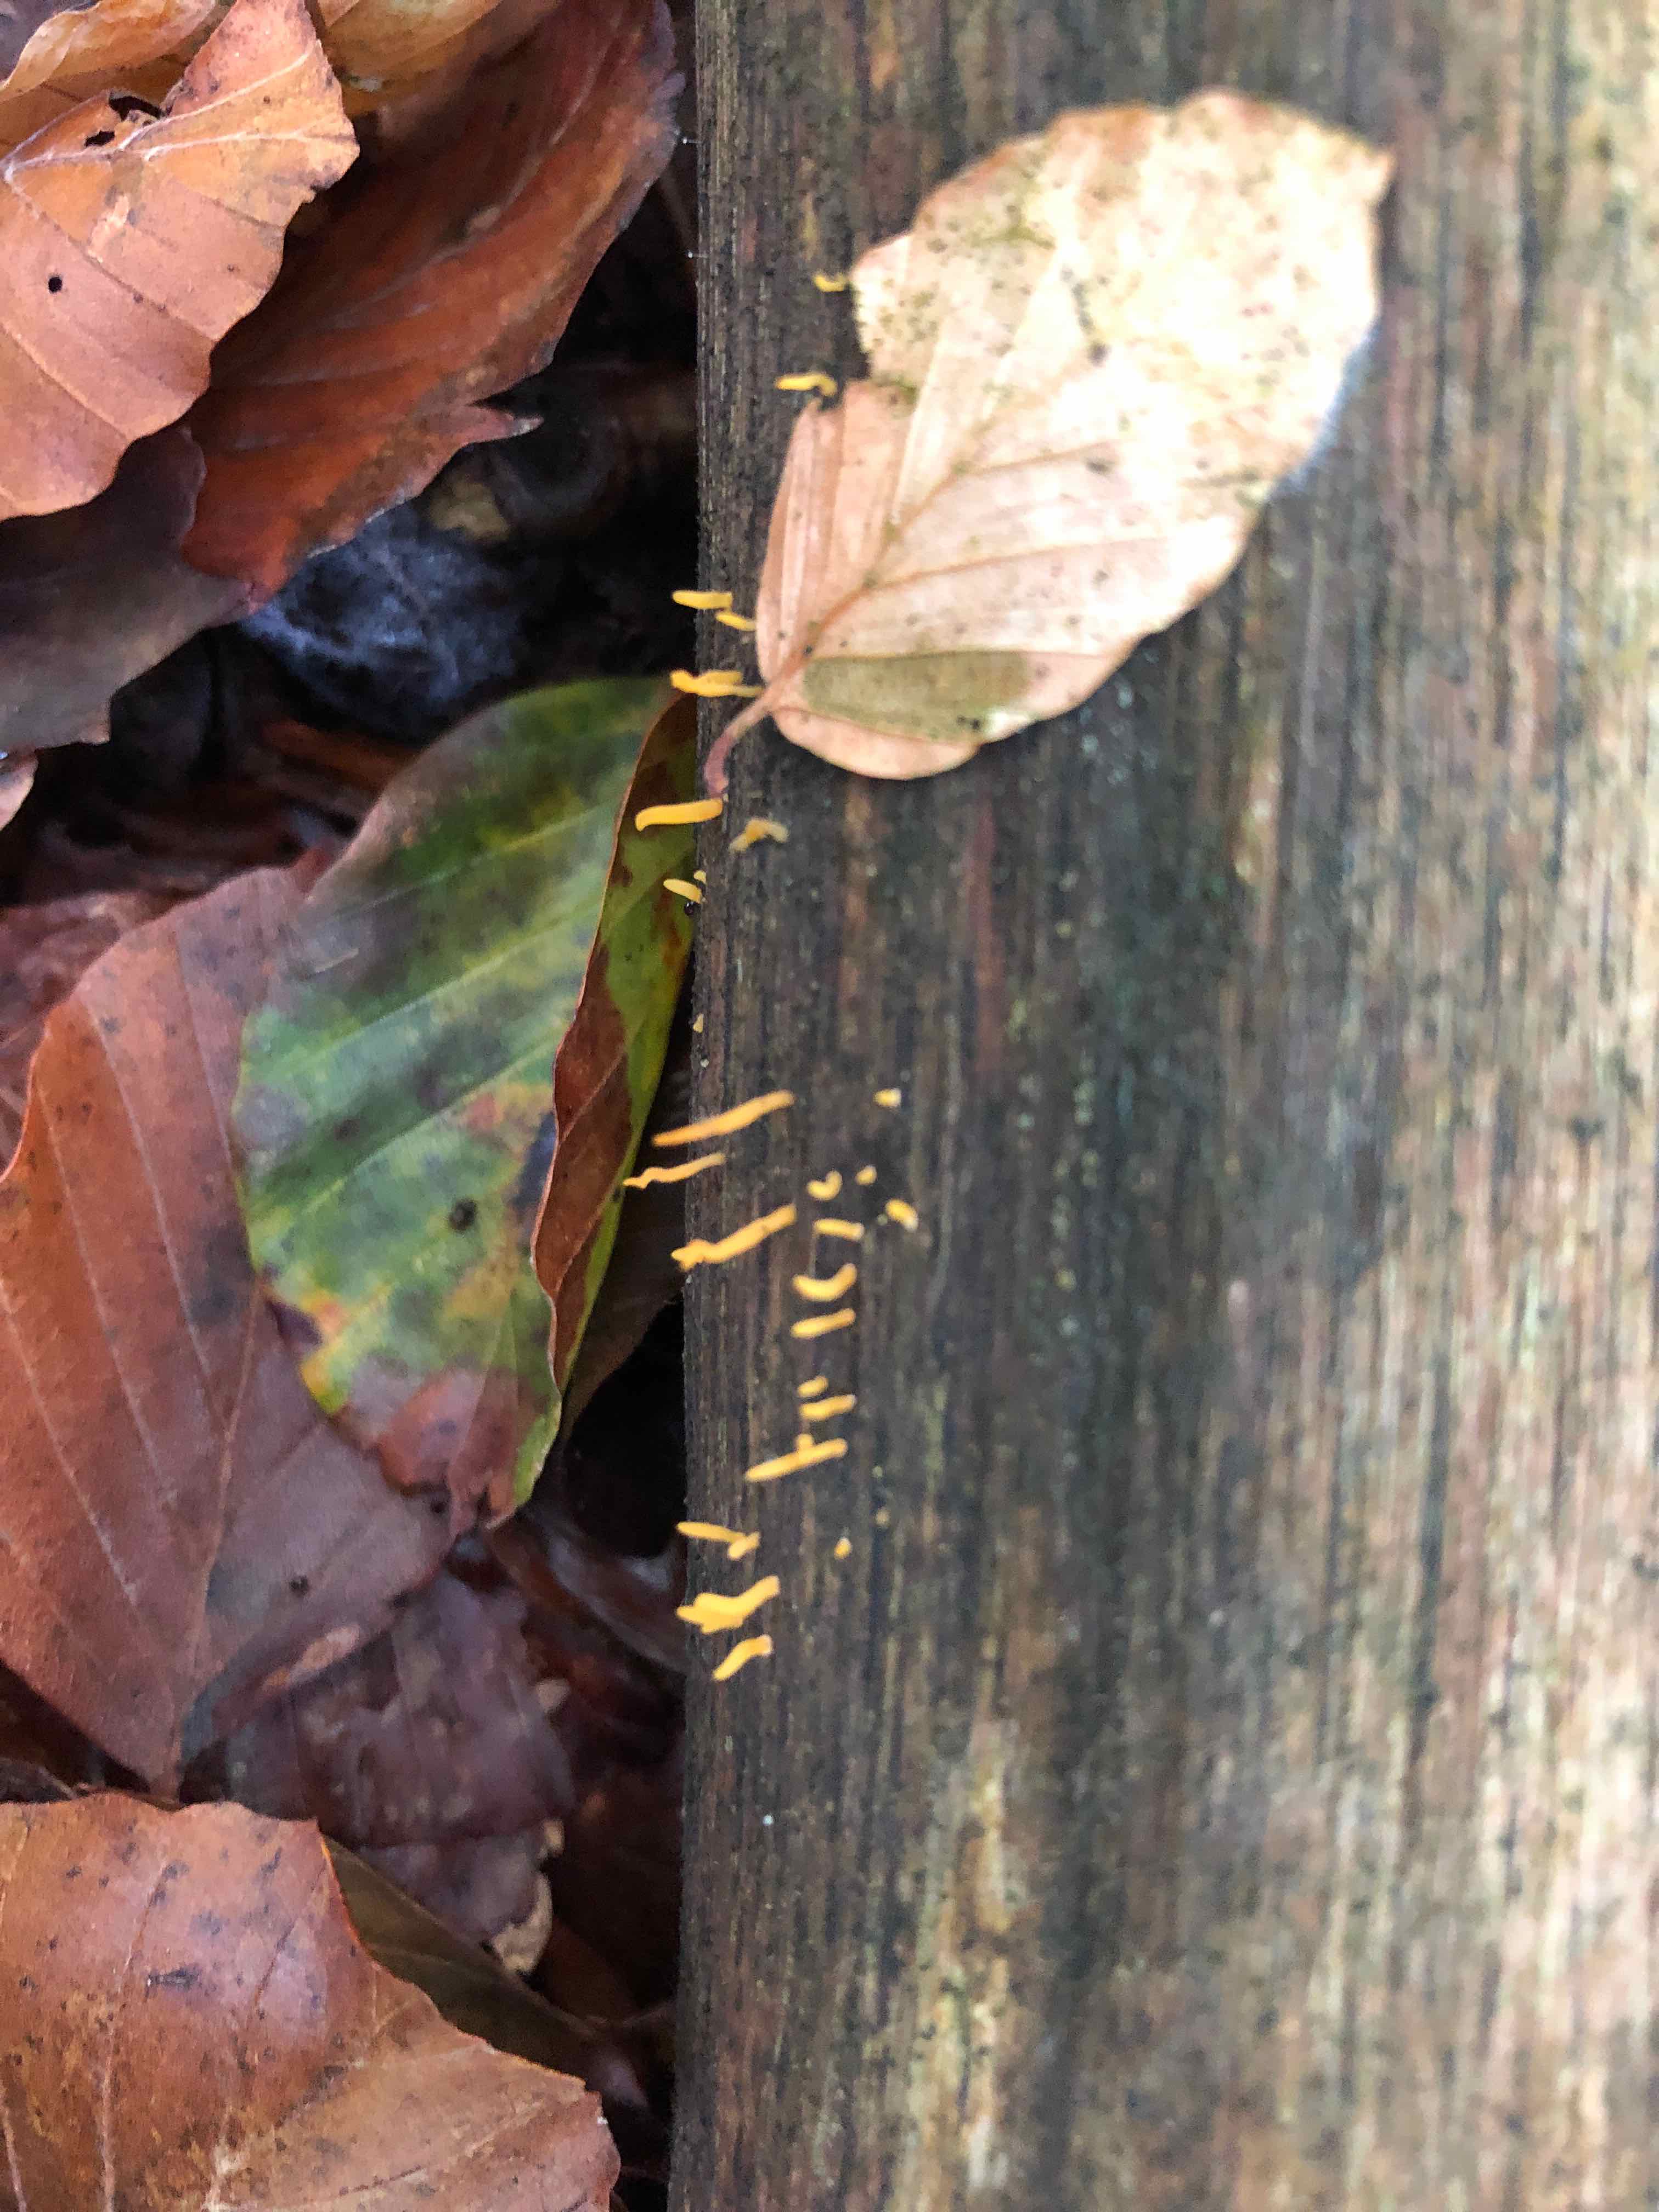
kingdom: Fungi
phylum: Basidiomycota
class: Dacrymycetes
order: Dacrymycetales
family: Dacrymycetaceae
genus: Calocera
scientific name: Calocera cornea
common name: liden guldgaffel
